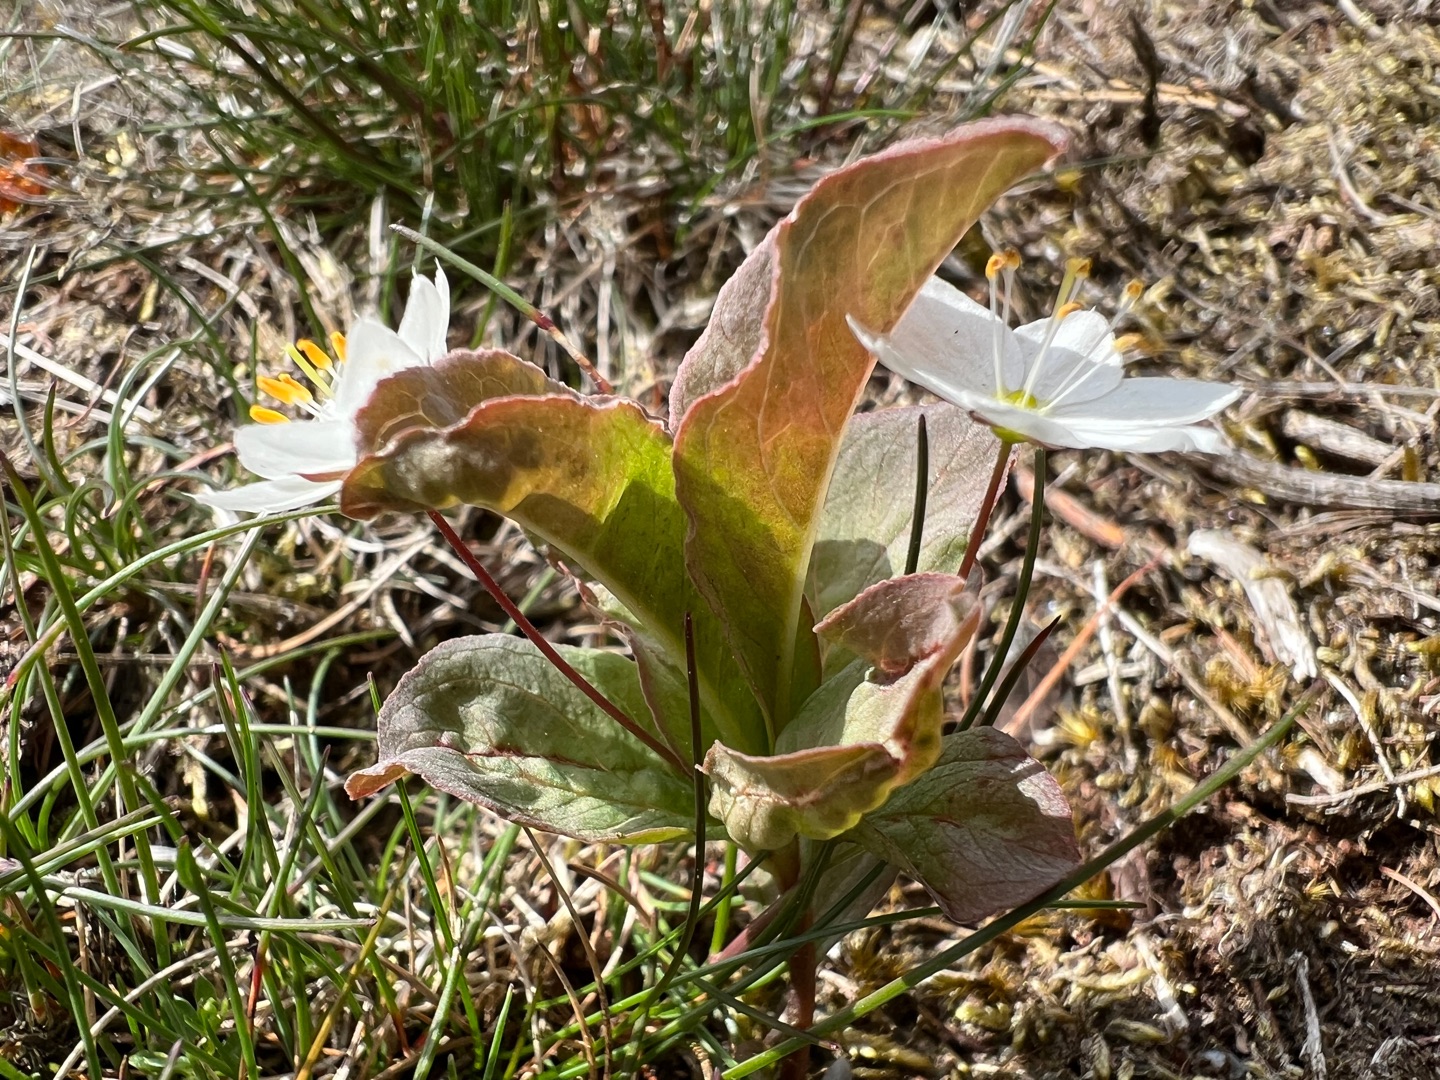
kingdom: Plantae
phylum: Tracheophyta
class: Magnoliopsida
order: Ericales
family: Primulaceae
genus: Lysimachia
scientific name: Lysimachia europaea
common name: Skovstjerne
